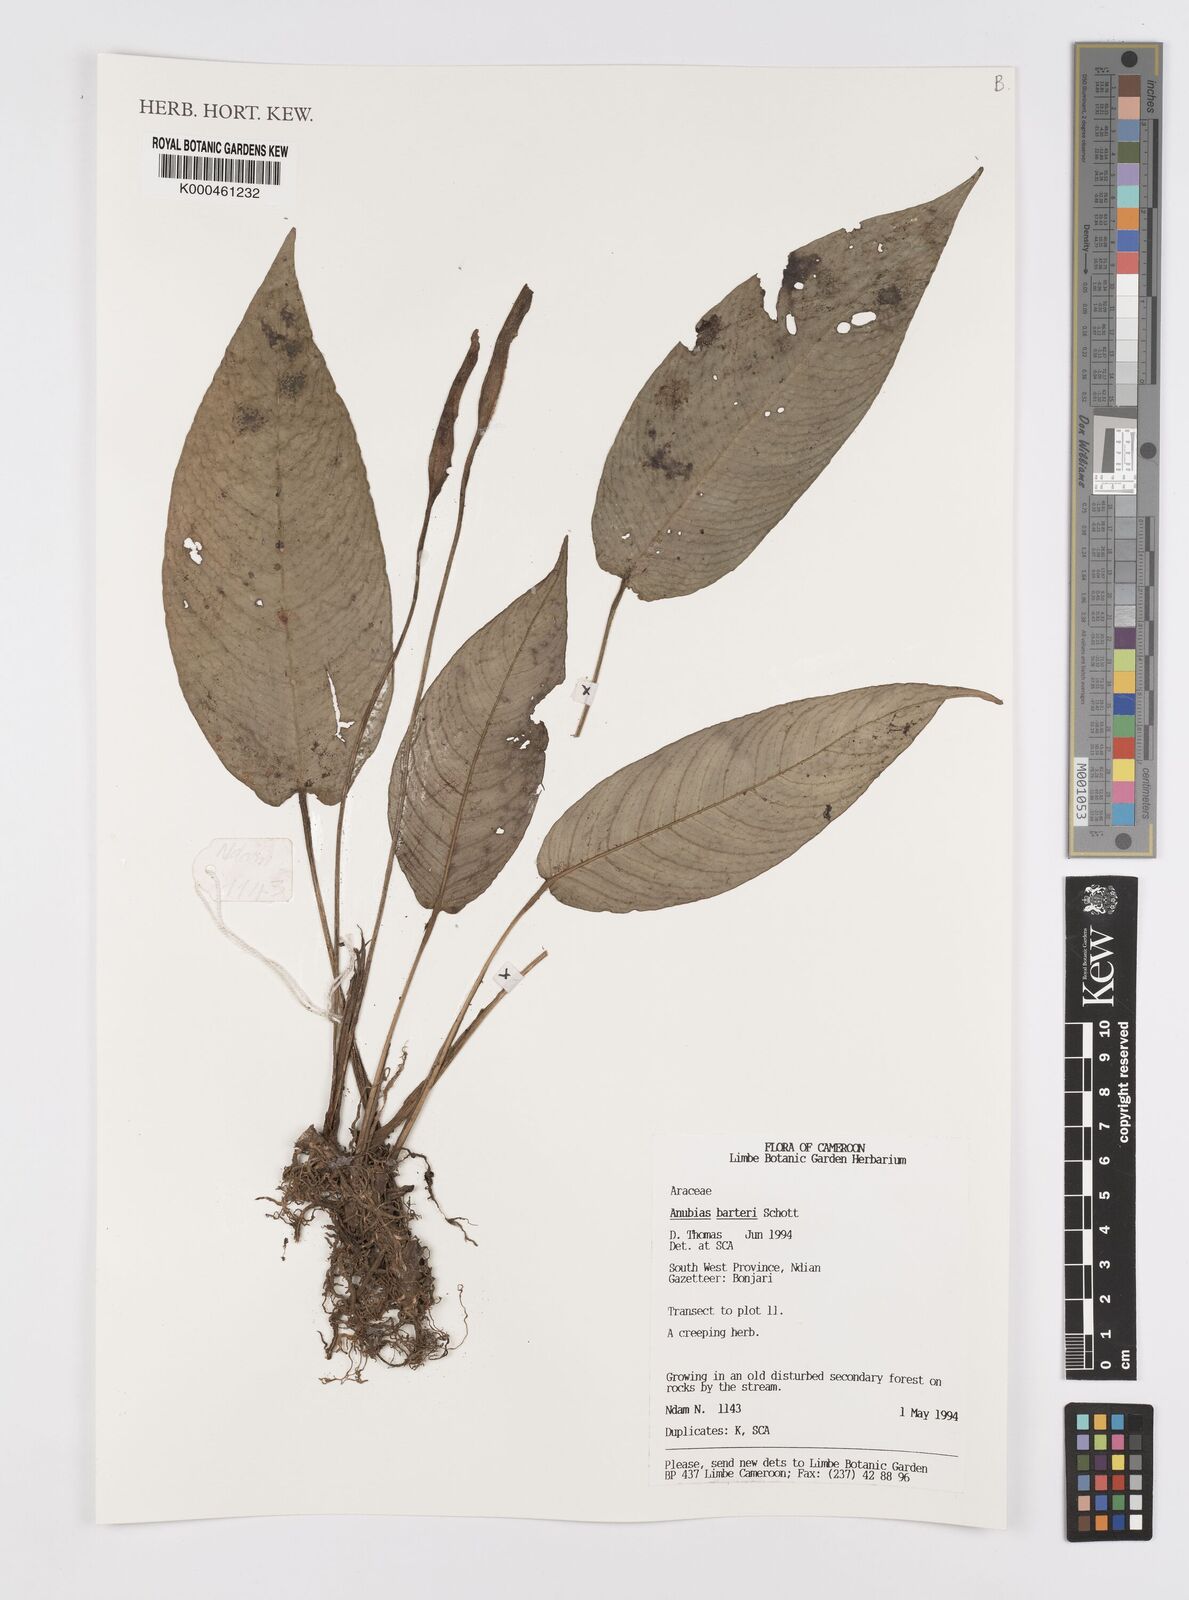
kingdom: Plantae
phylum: Tracheophyta
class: Liliopsida
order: Alismatales
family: Araceae
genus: Anubias
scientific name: Anubias barteri
